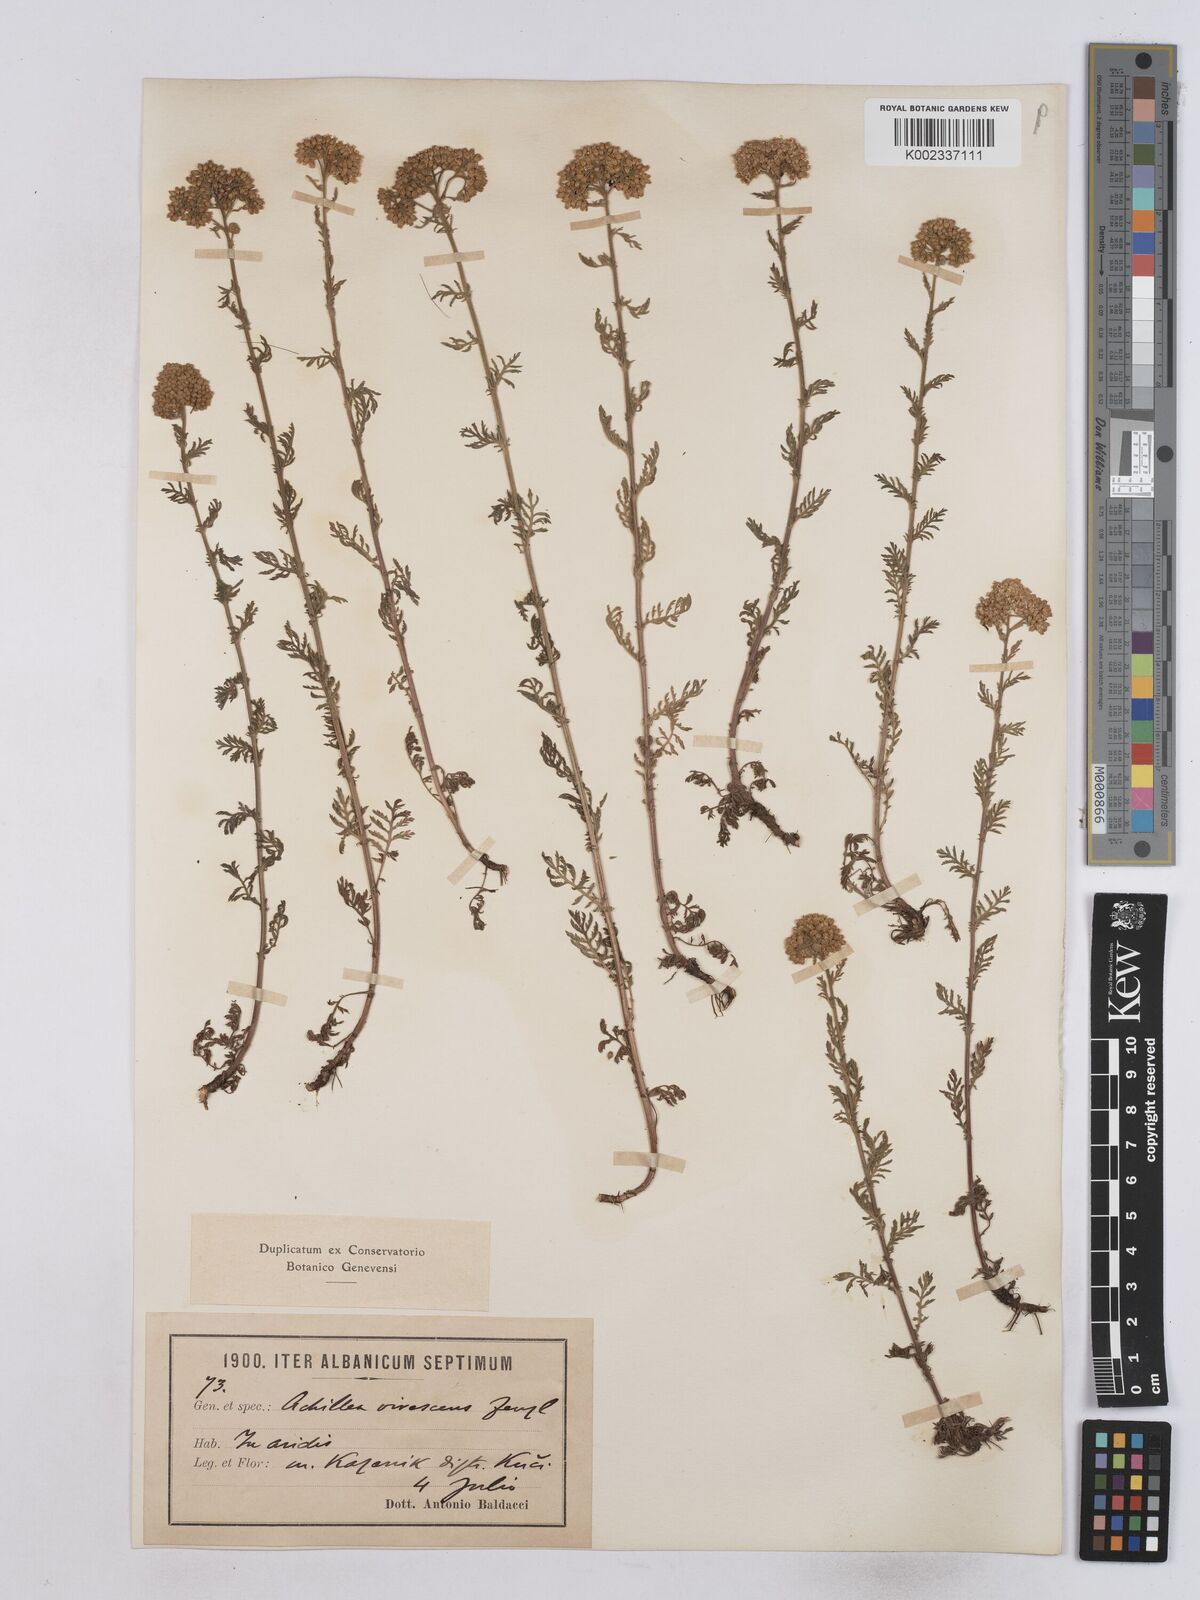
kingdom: Plantae
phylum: Tracheophyta
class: Magnoliopsida
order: Asterales
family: Asteraceae
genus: Achillea
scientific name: Achillea virescens
